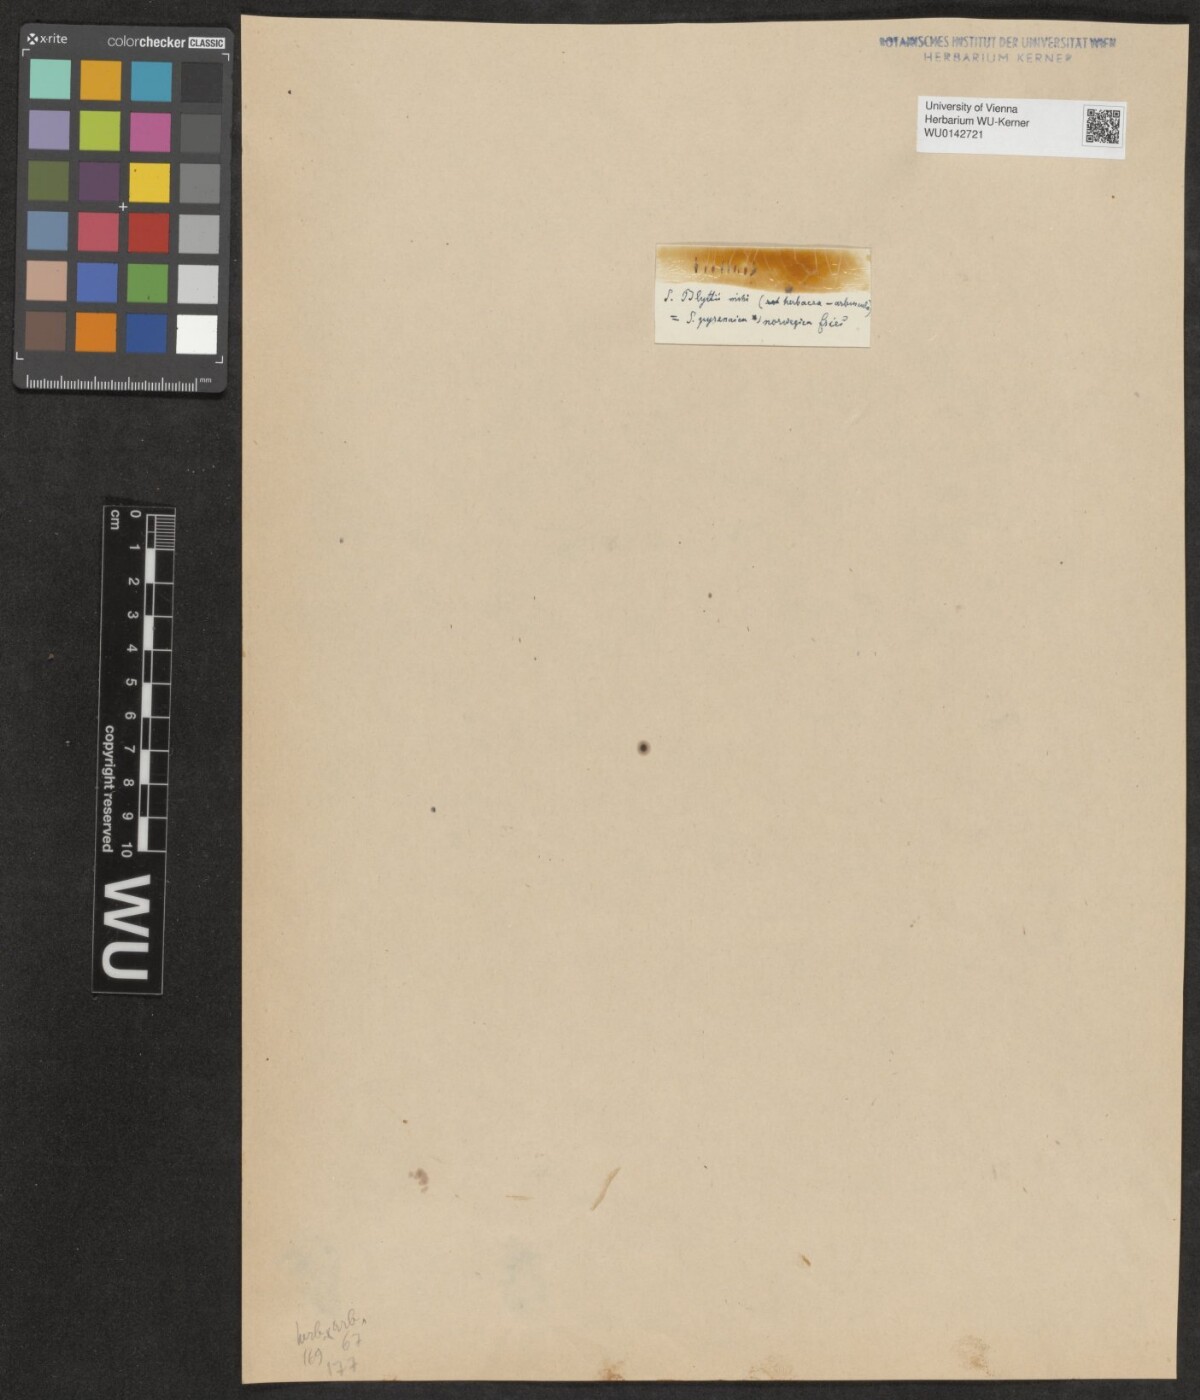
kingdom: Plantae
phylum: Tracheophyta
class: Magnoliopsida
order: Malpighiales
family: Salicaceae
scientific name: Salicaceae
